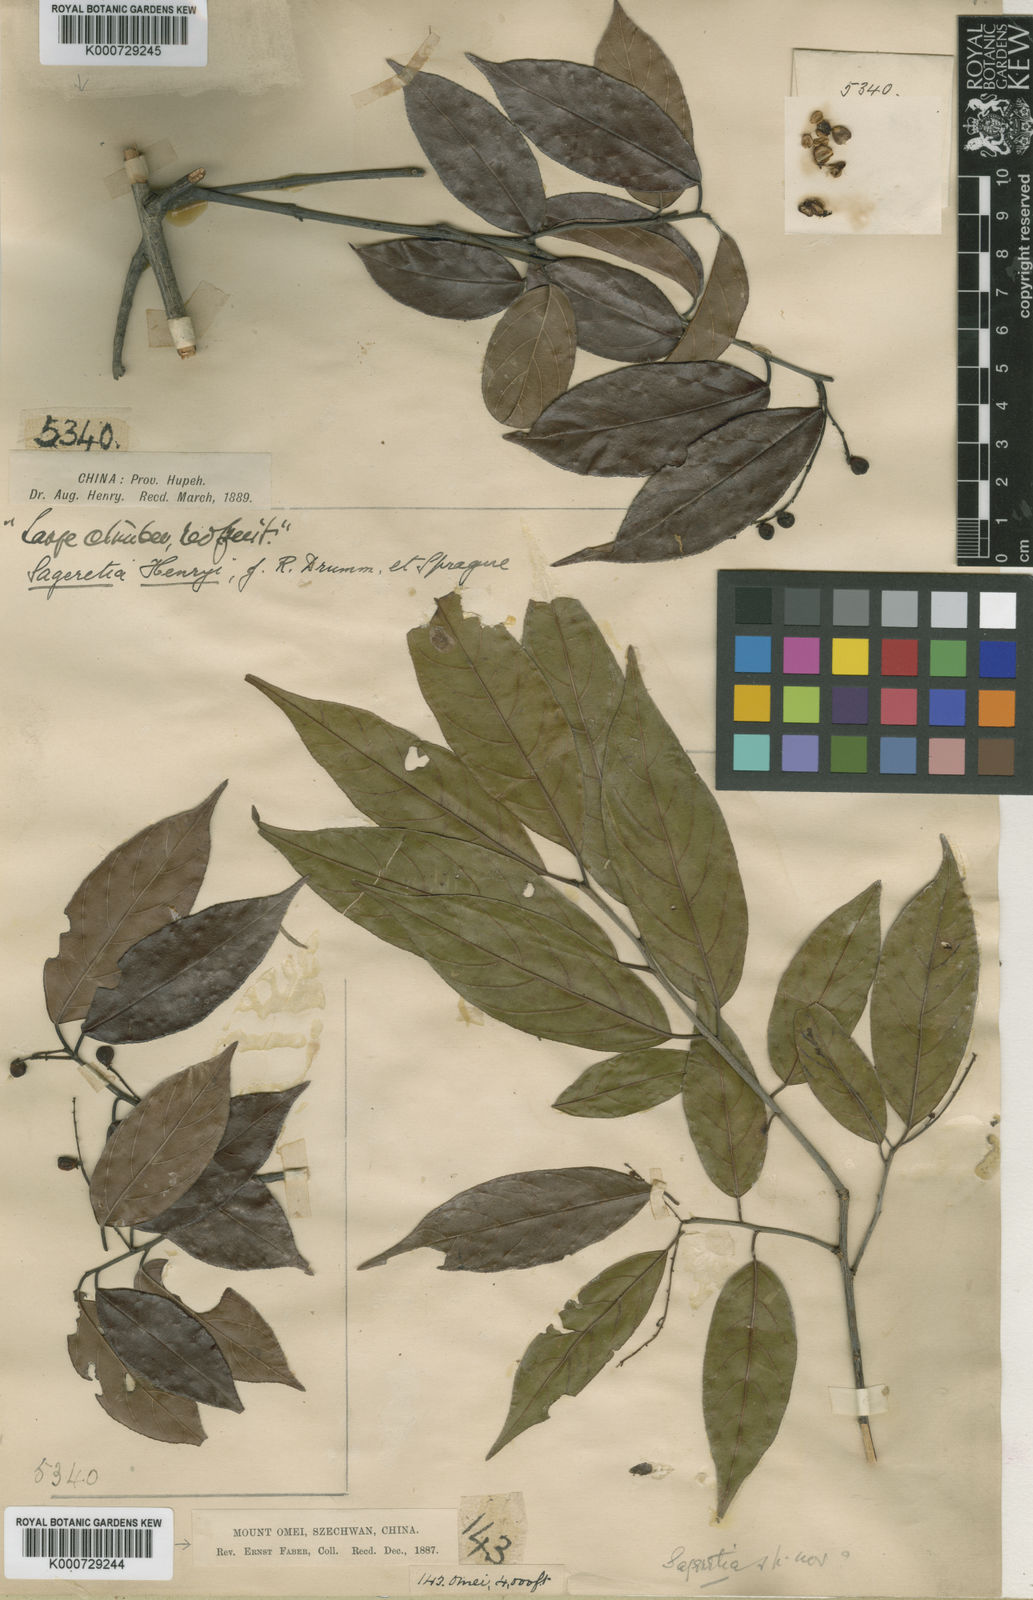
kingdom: Plantae
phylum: Tracheophyta
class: Magnoliopsida
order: Rosales
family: Rhamnaceae
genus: Sageretia
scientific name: Sageretia henryi
